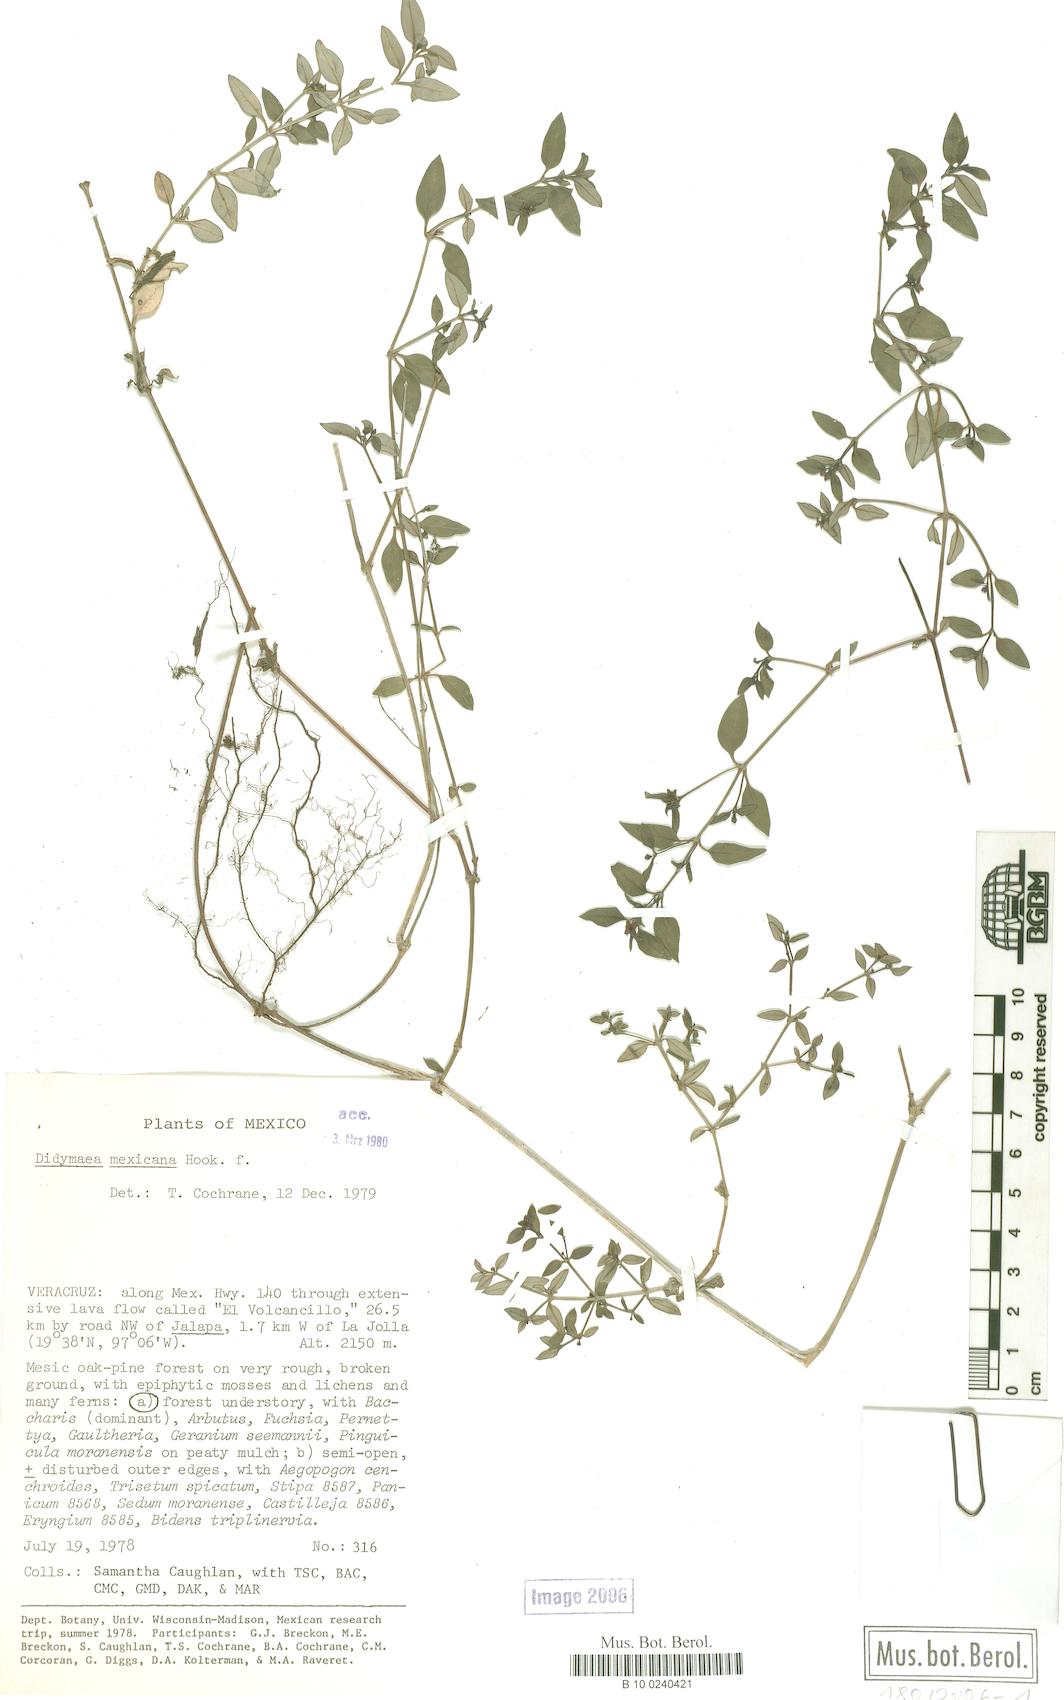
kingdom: Plantae
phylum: Tracheophyta
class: Polypodiopsida
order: Polypodiales
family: Aspleniaceae
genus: Asplenium
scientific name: Asplenium abyssinicum
